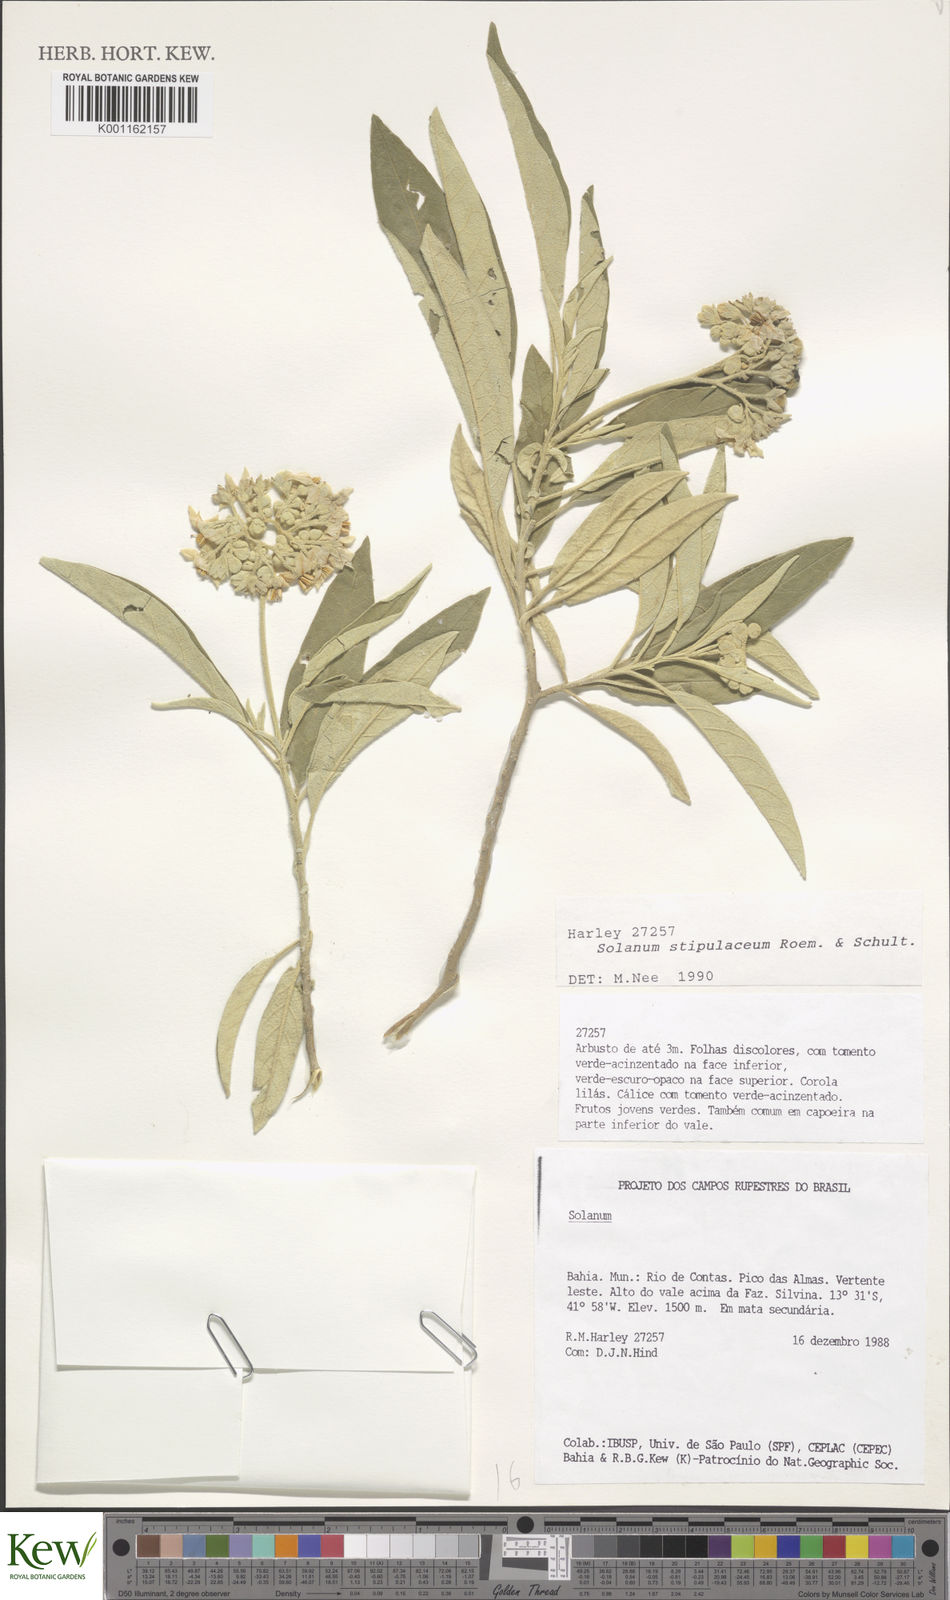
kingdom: Plantae
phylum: Tracheophyta
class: Magnoliopsida
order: Solanales
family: Solanaceae
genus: Solanum
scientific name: Solanum stipulaceum
